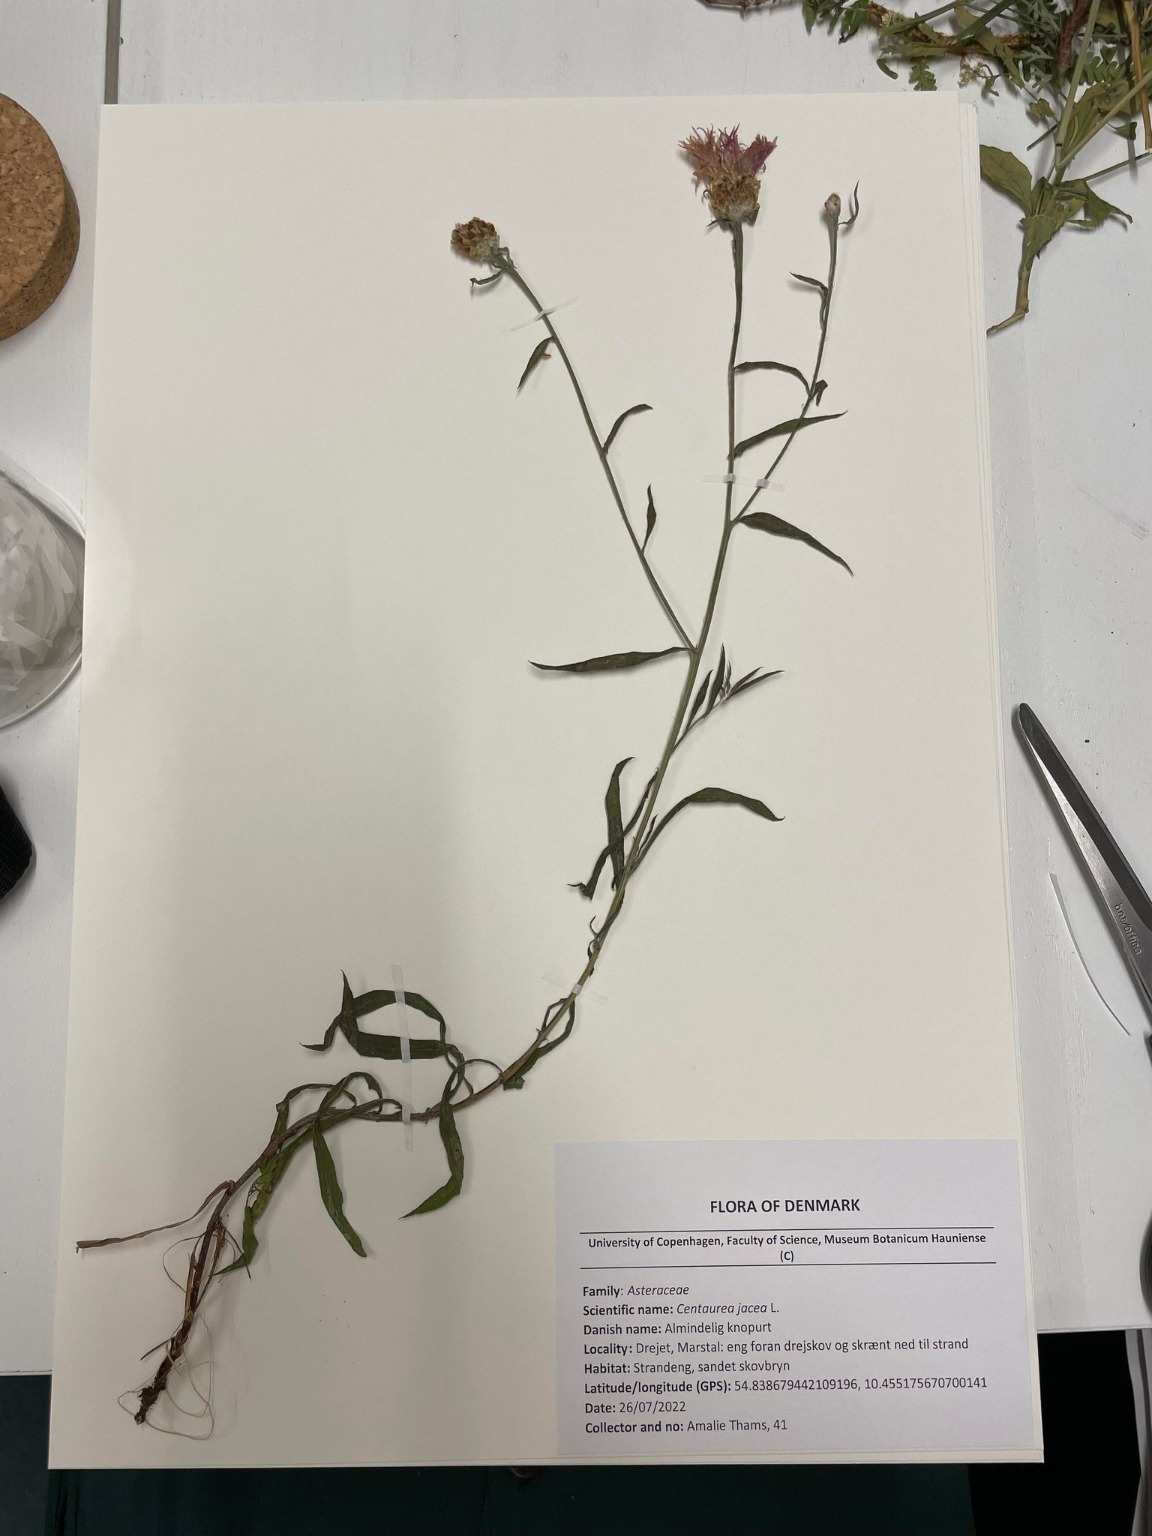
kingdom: Plantae
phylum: Tracheophyta
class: Magnoliopsida
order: Asterales
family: Asteraceae
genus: Centaurea
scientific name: Centaurea jacea
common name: Almindelig knopurt
